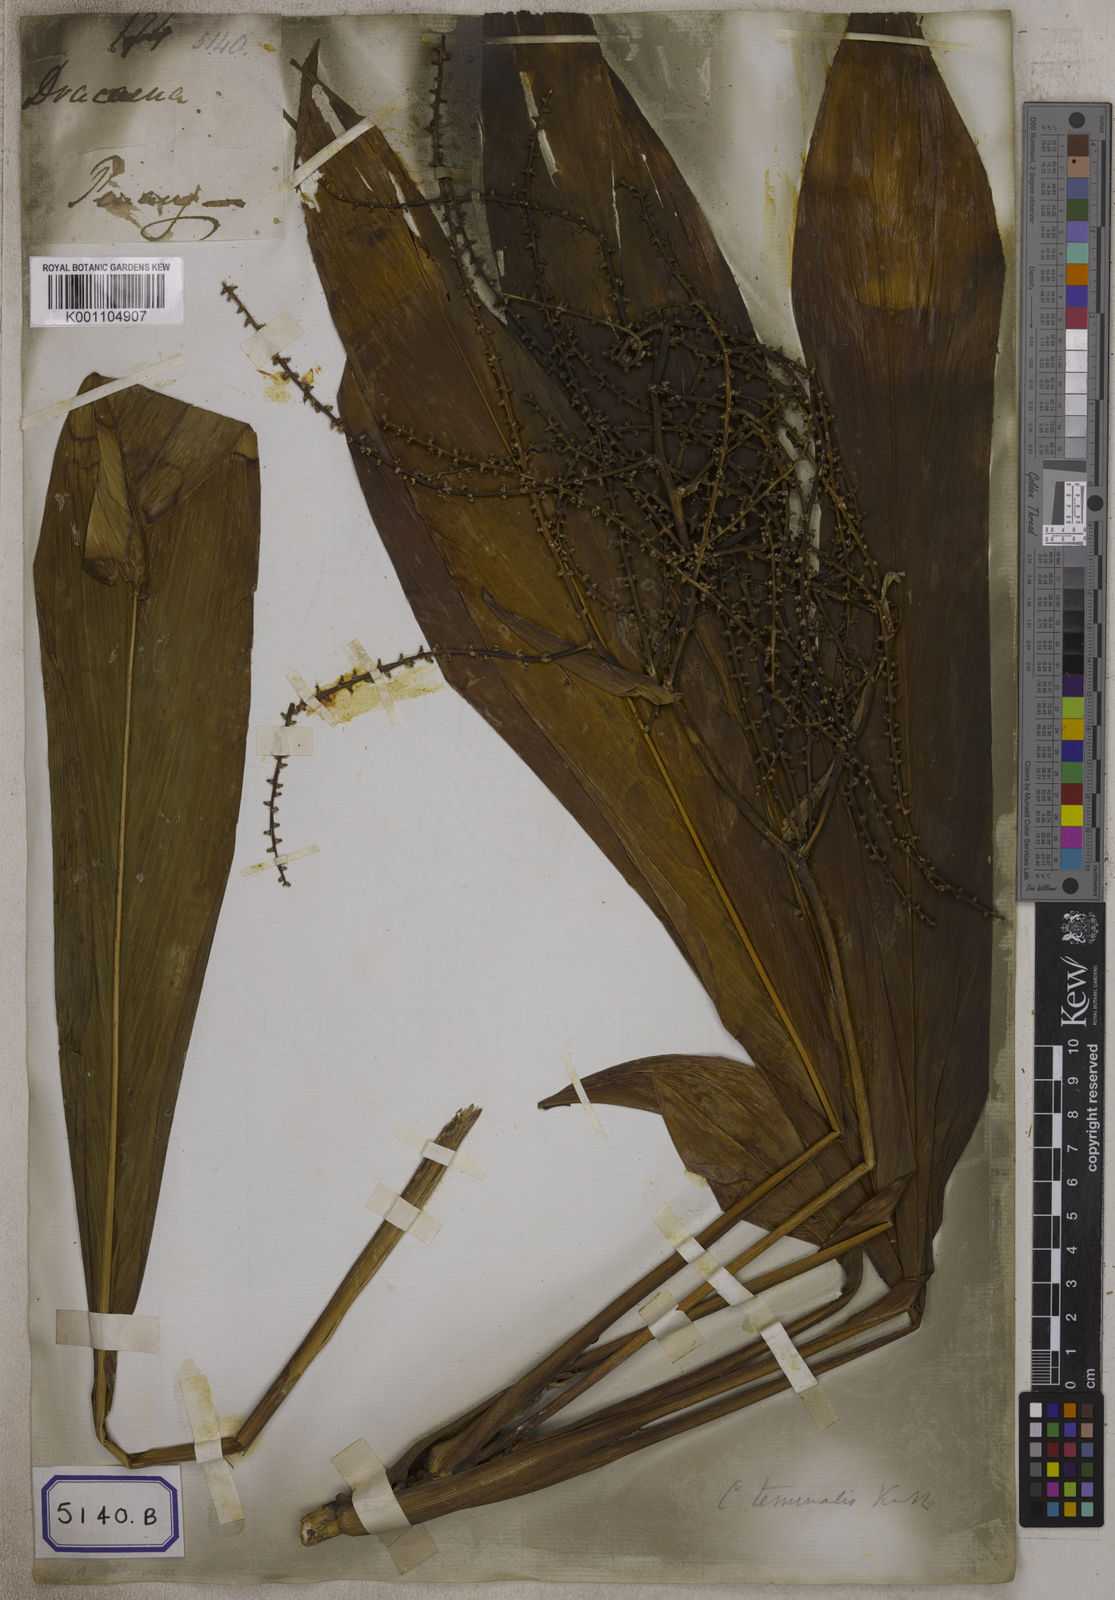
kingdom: Plantae
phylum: Tracheophyta
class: Liliopsida
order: Asparagales
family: Asparagaceae
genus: Cordyline
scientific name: Cordyline fruticosa
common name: Good-luck-plant
